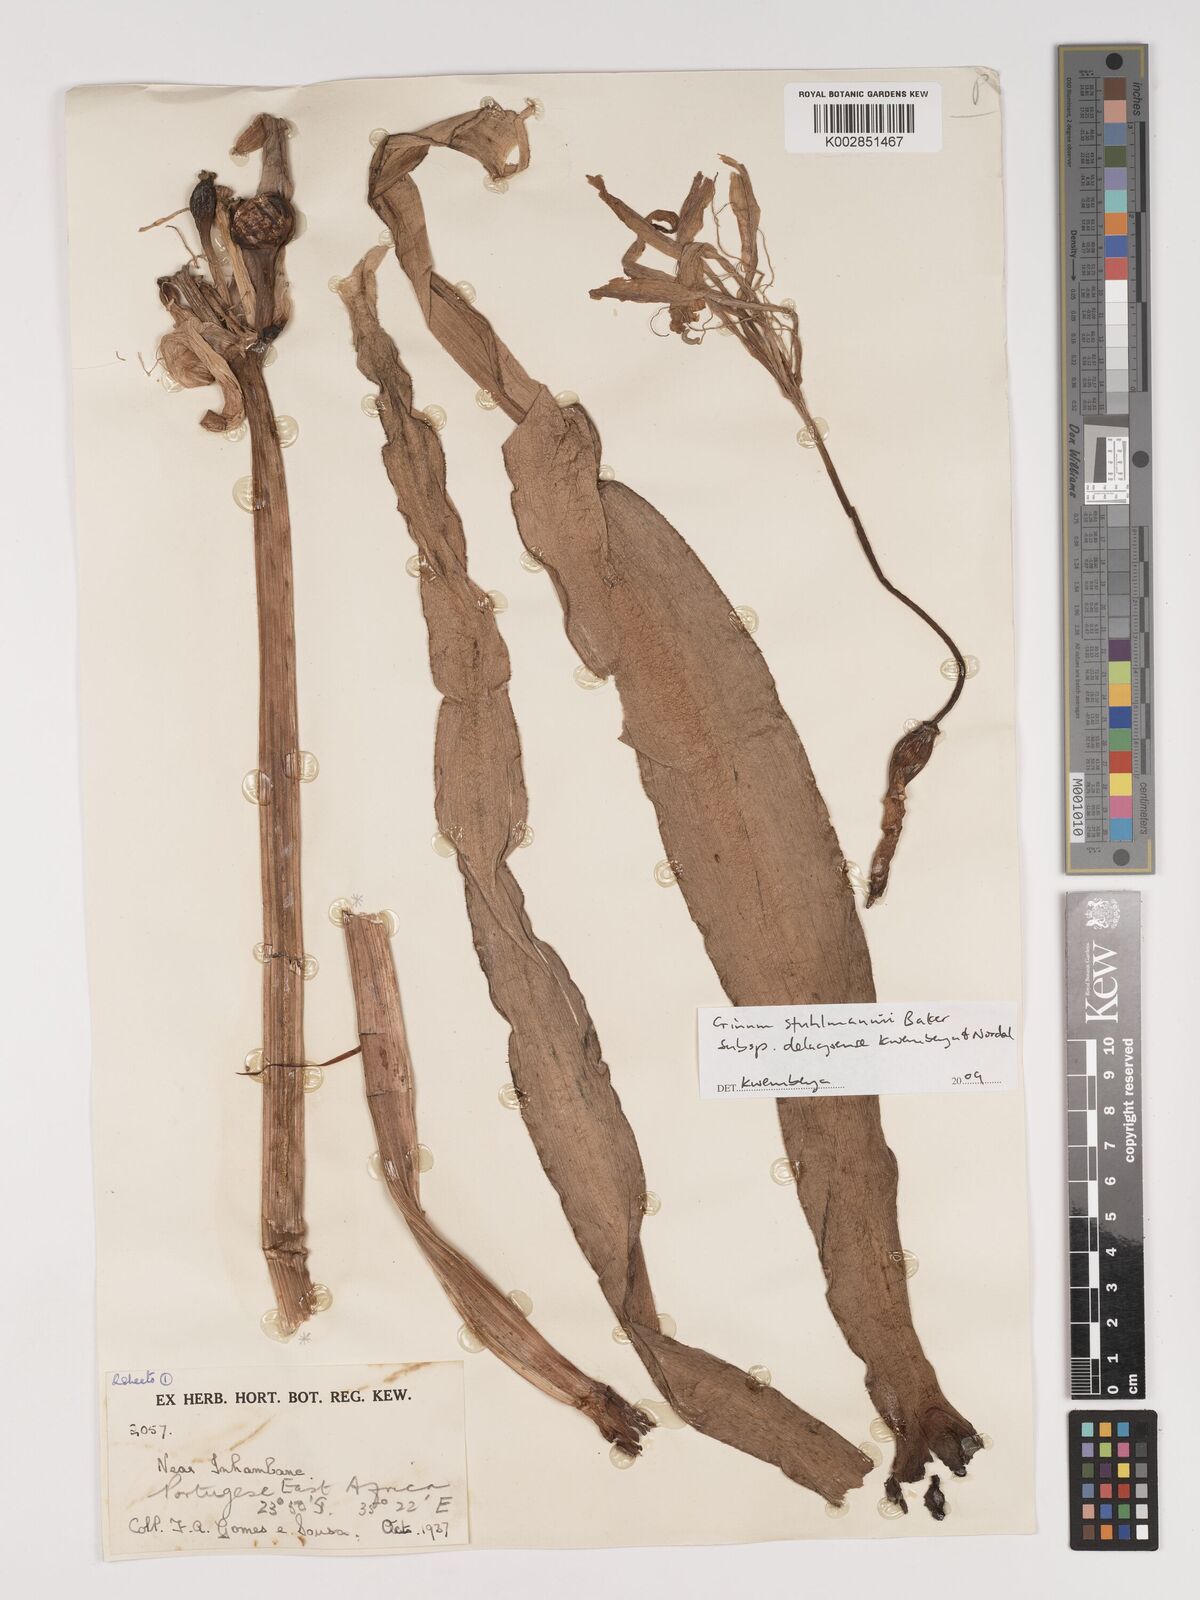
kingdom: Plantae
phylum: Tracheophyta
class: Liliopsida
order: Asparagales
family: Amaryllidaceae
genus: Crinum
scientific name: Crinum stuhlmannii
